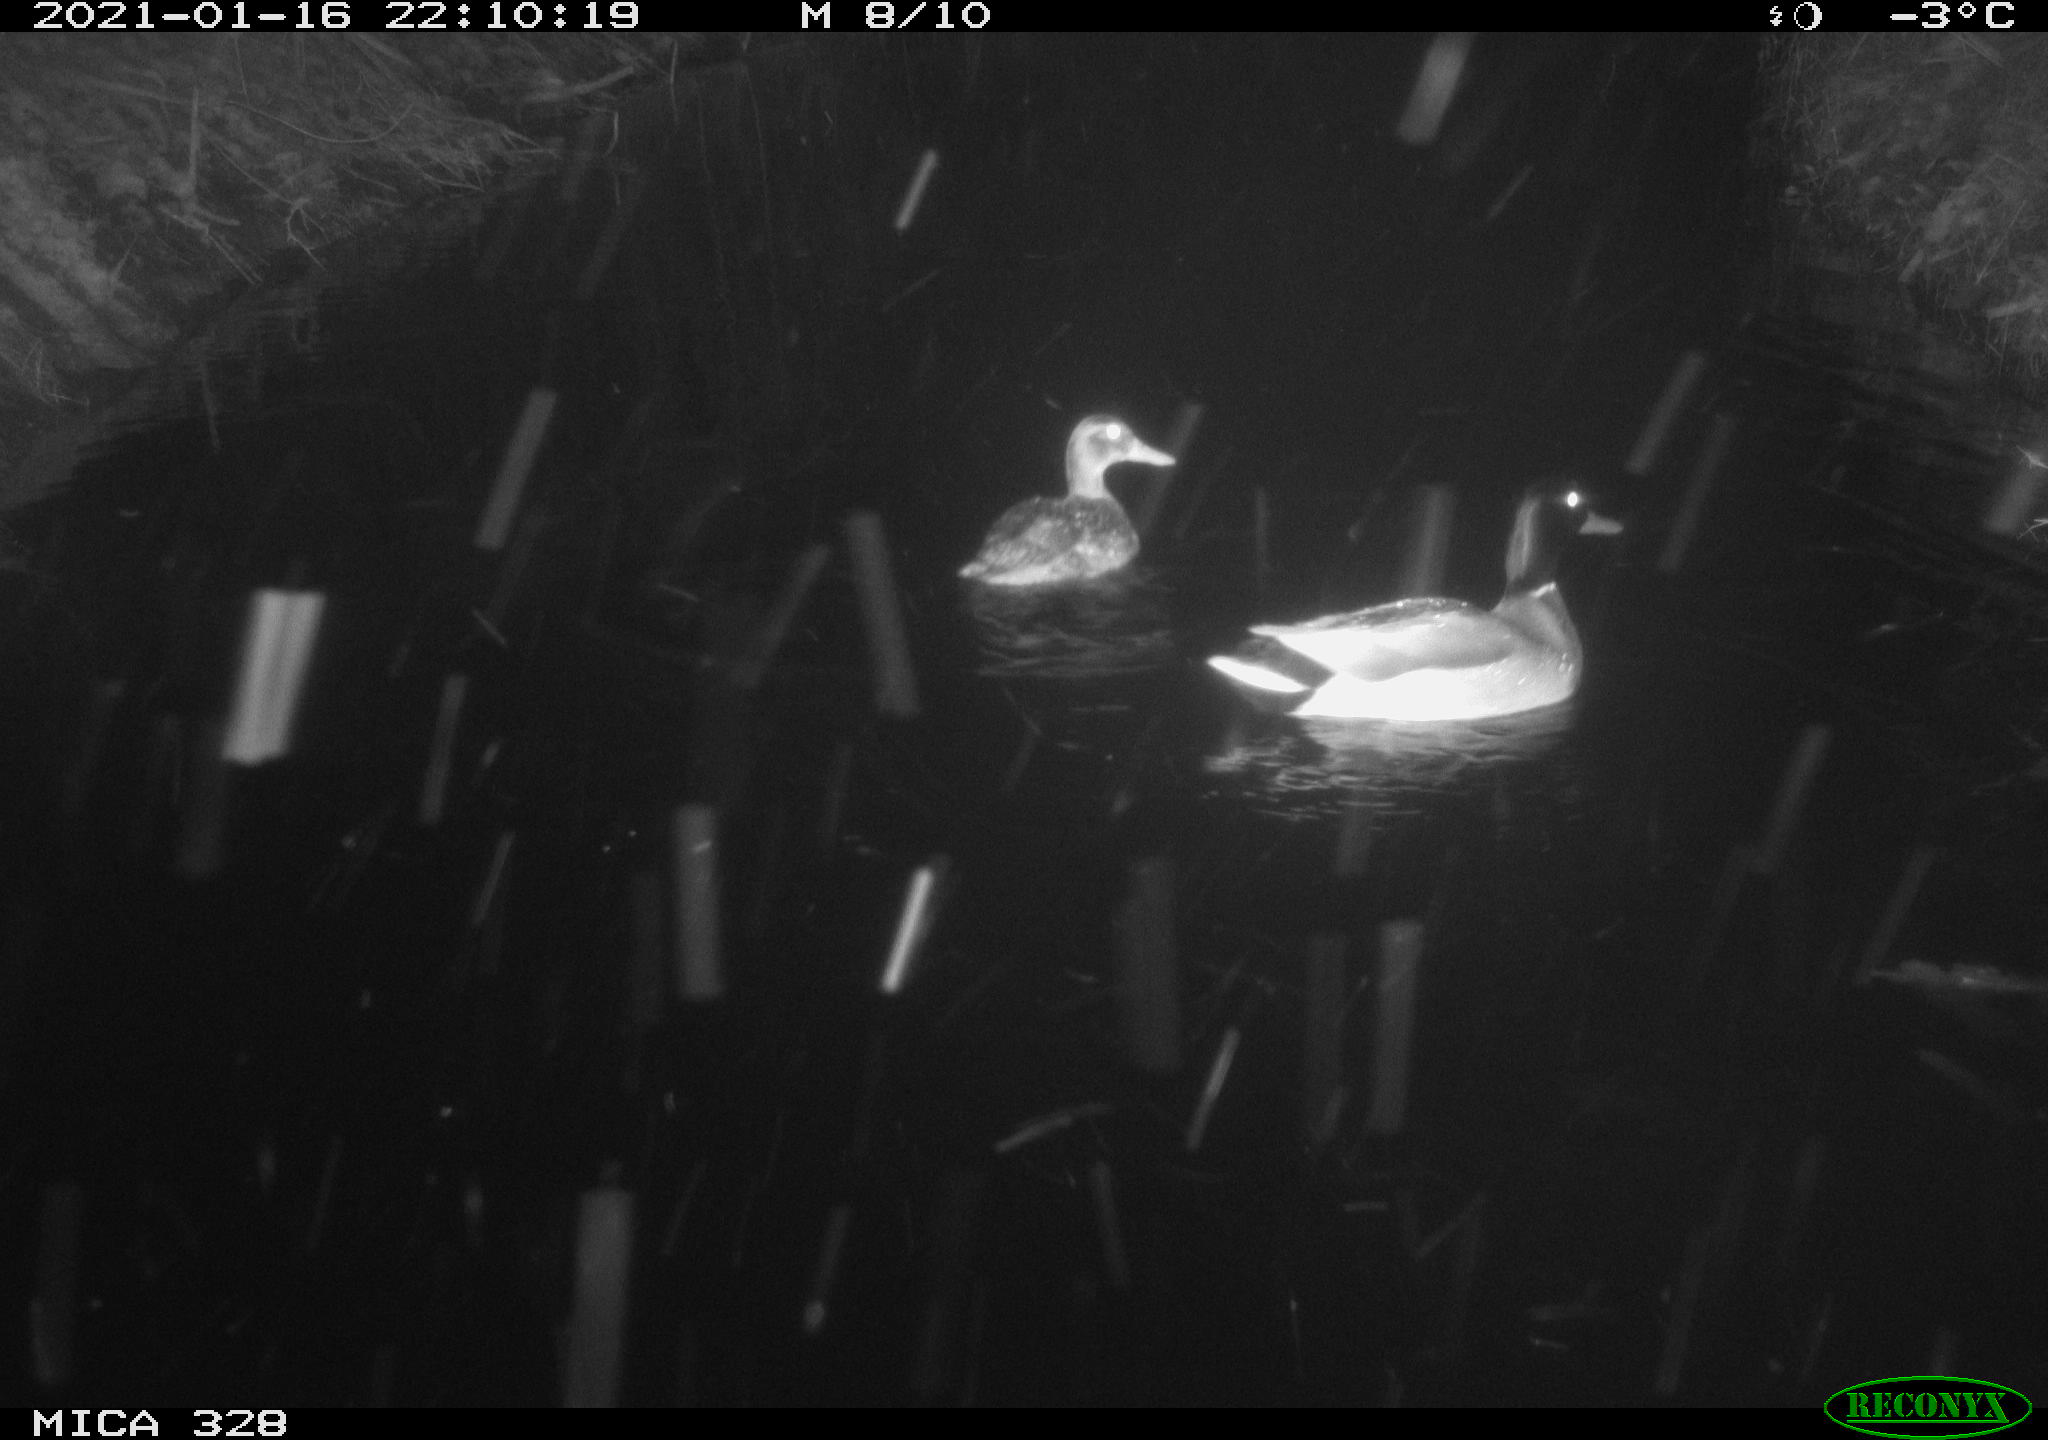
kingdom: Animalia
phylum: Chordata
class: Aves
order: Anseriformes
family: Anatidae
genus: Anas
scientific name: Anas platyrhynchos
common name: Mallard
